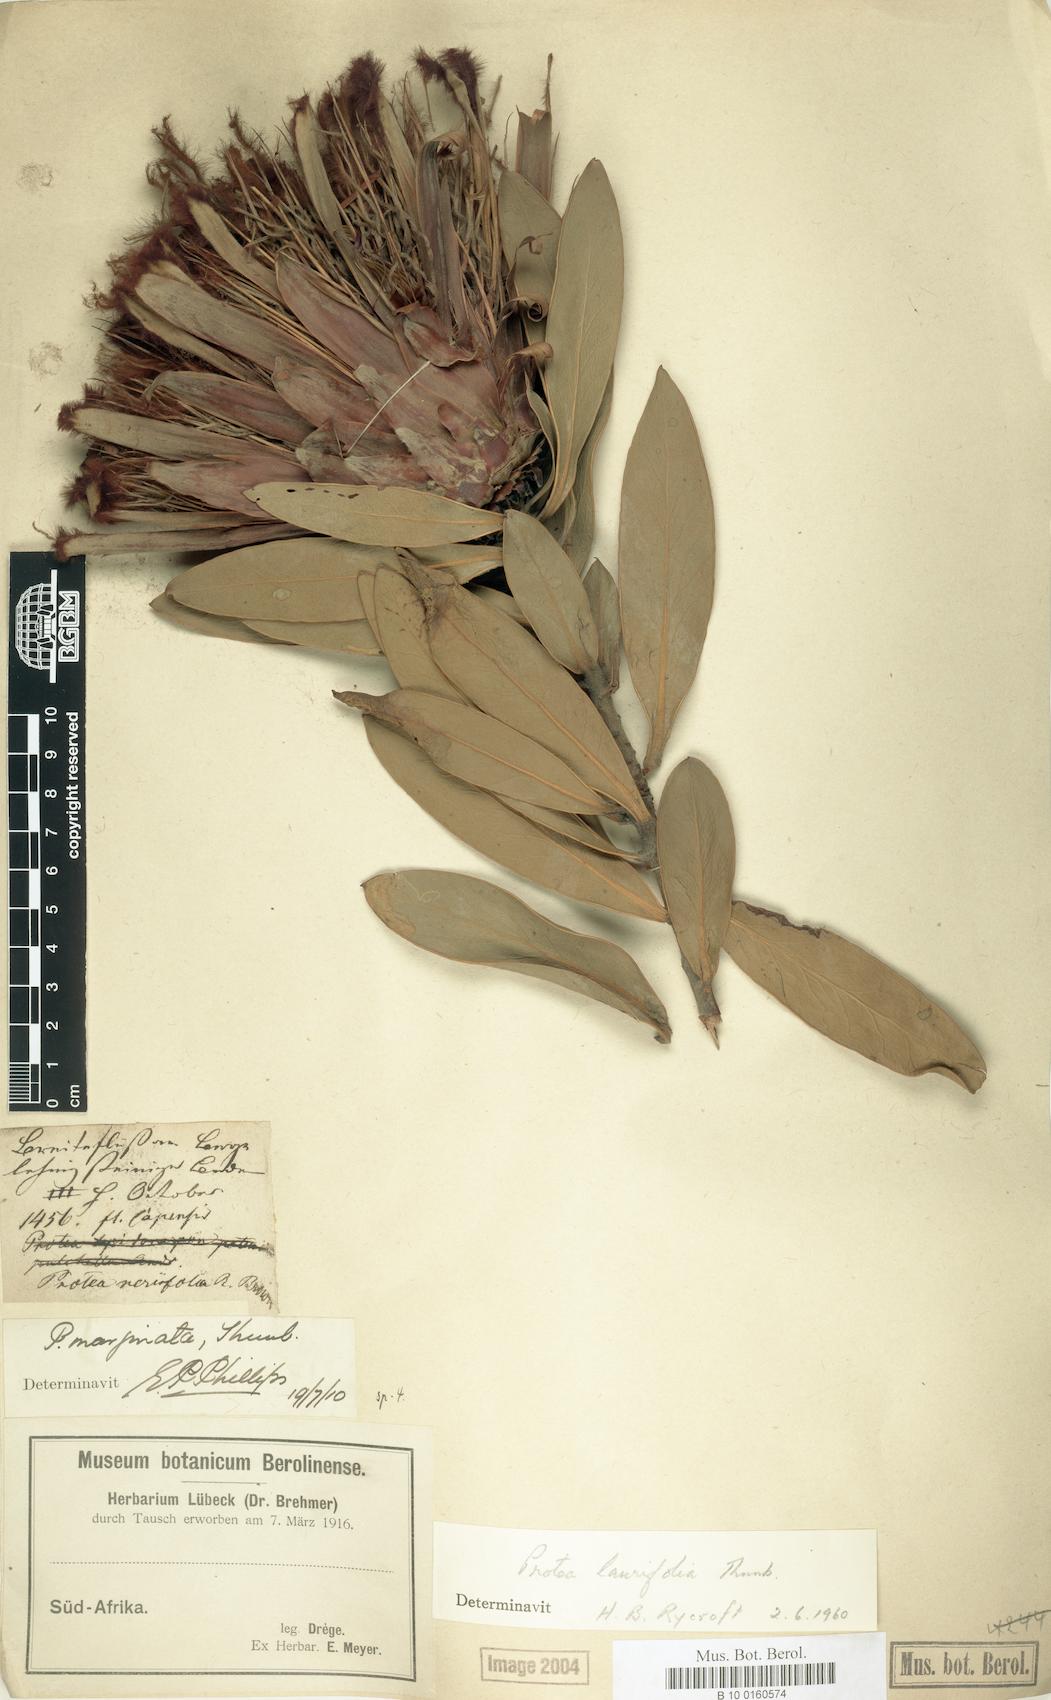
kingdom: Plantae
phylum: Tracheophyta
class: Magnoliopsida
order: Proteales
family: Proteaceae
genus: Protea
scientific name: Protea laurifolia
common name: Grey-leaf sugarbsh
